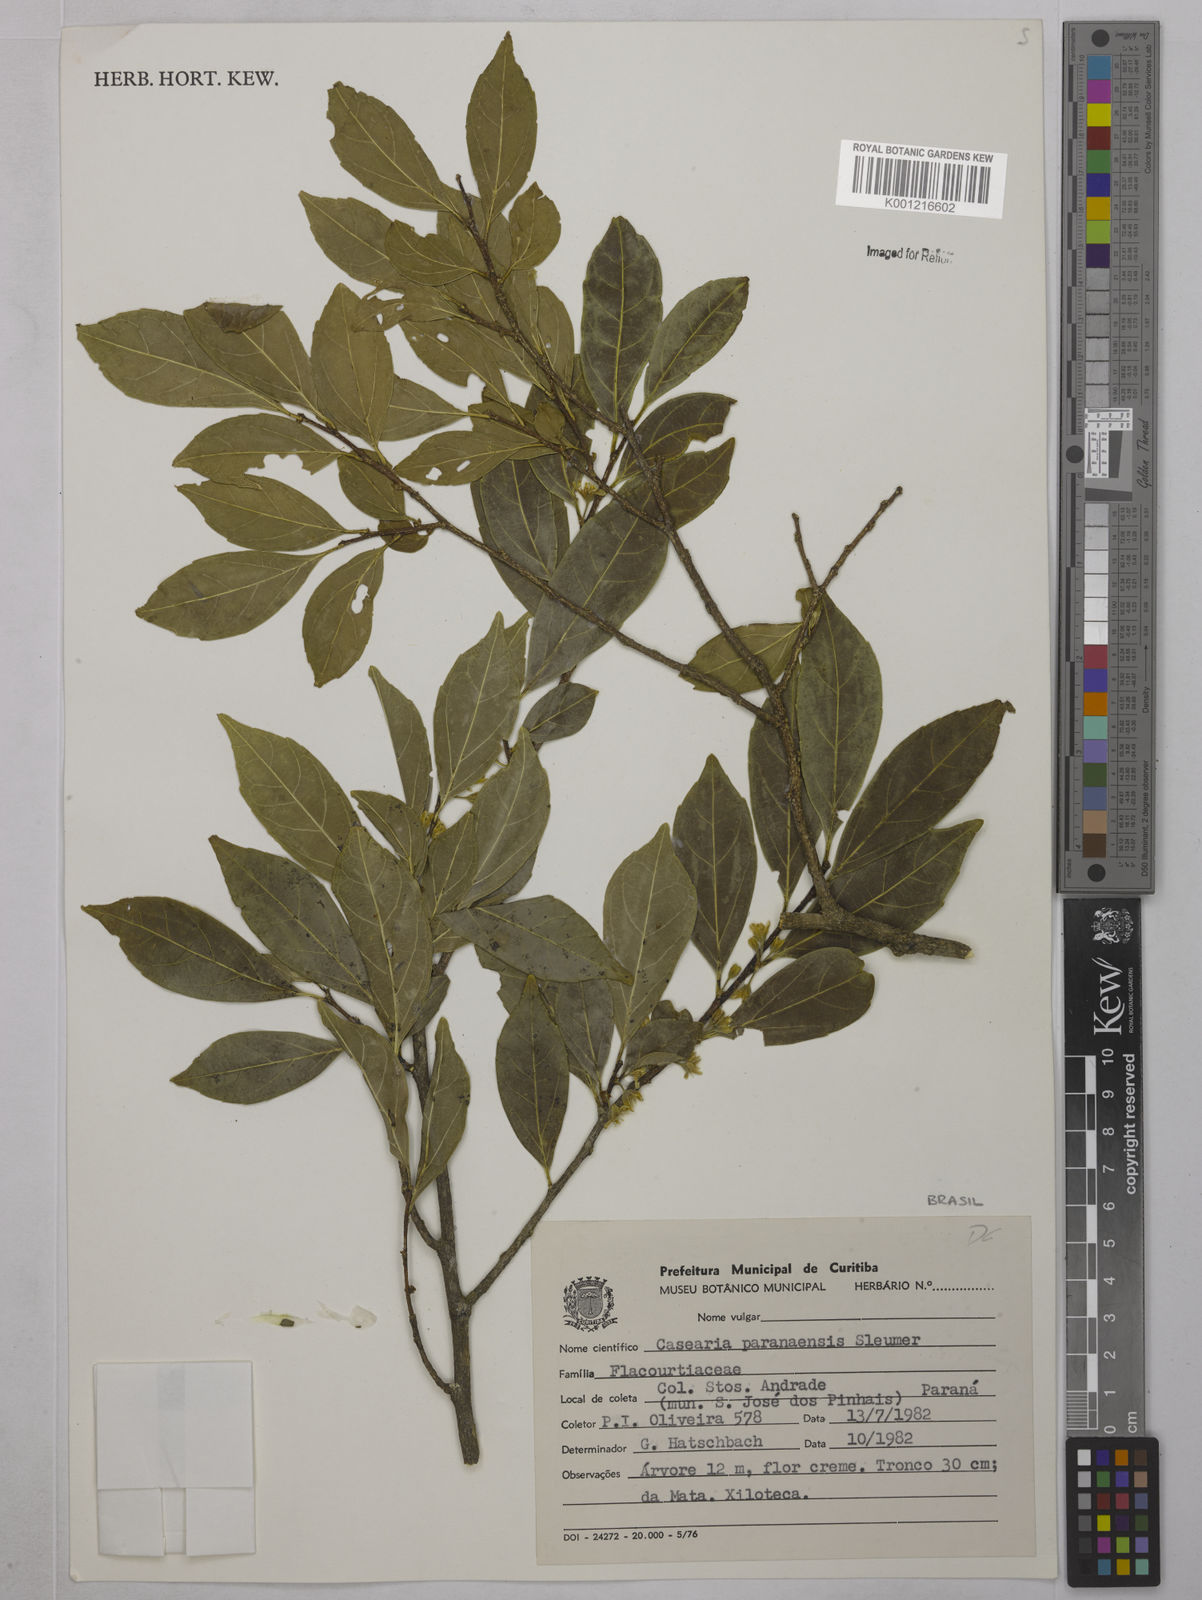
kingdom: Plantae
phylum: Tracheophyta
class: Magnoliopsida
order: Malpighiales
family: Salicaceae
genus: Casearia
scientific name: Casearia paranaensis
